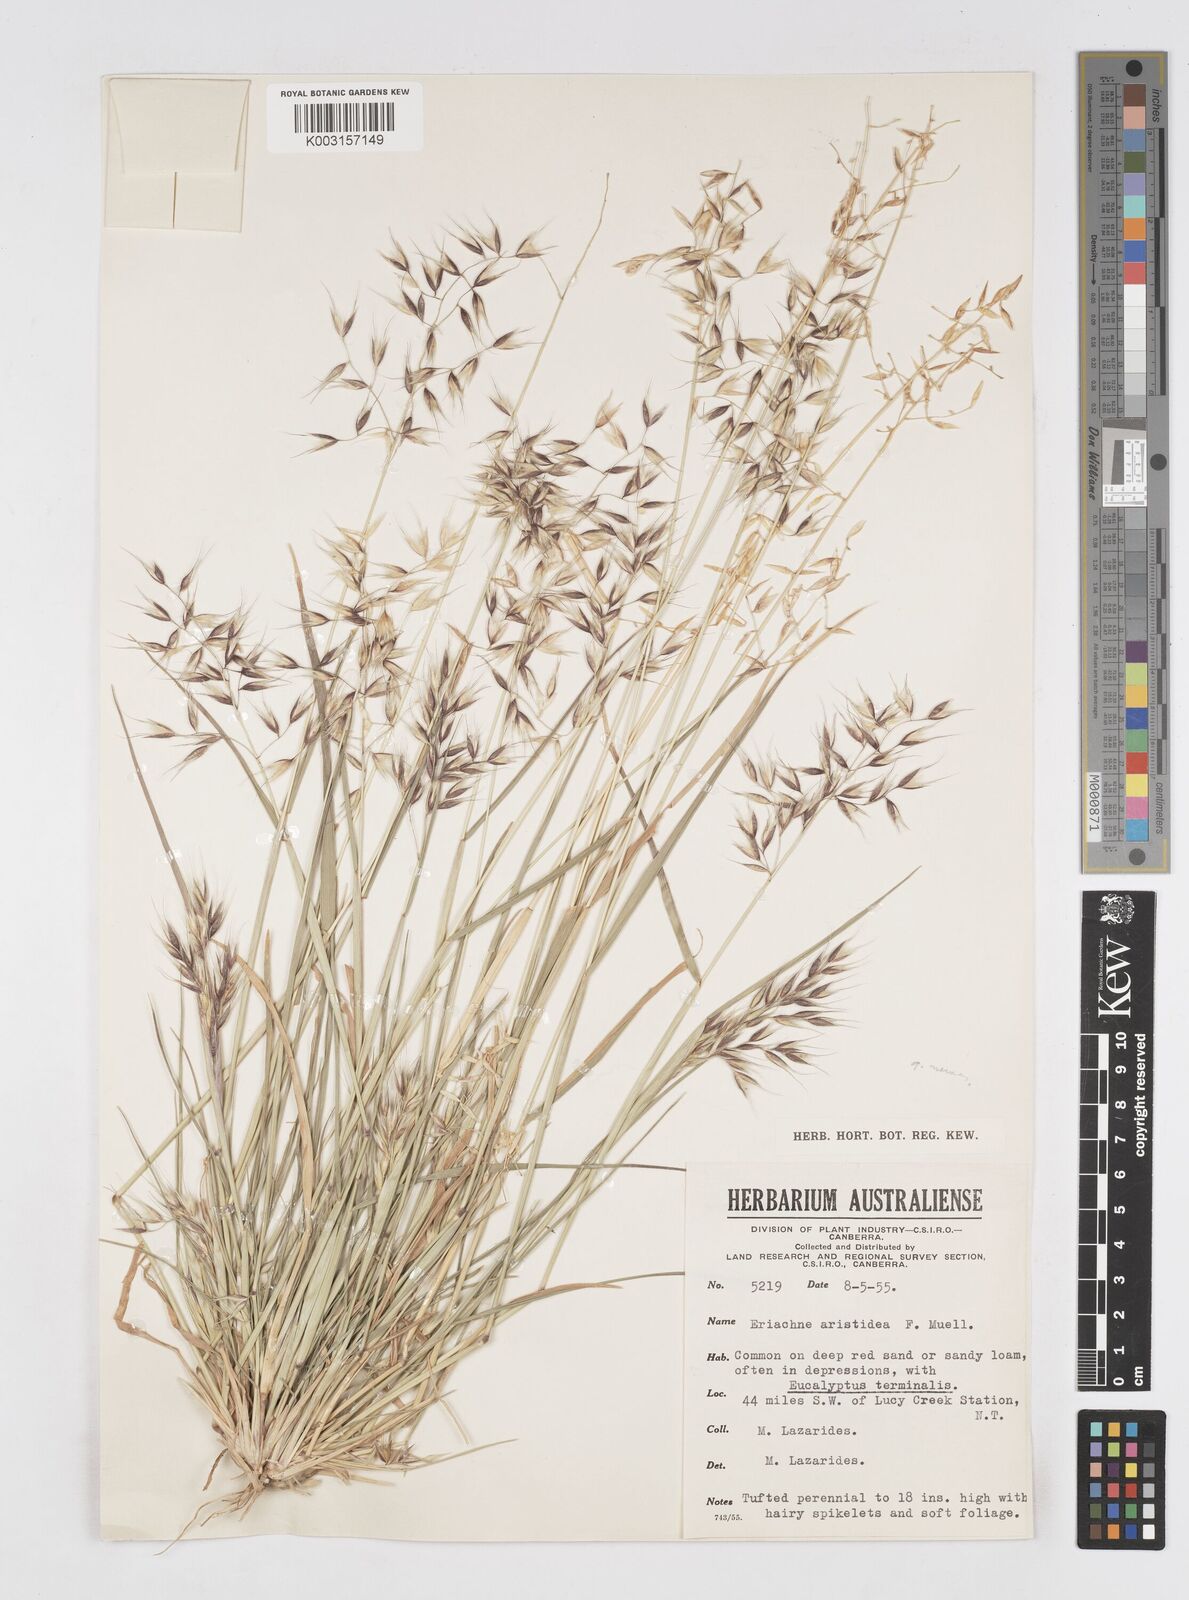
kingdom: Plantae
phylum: Tracheophyta
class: Liliopsida
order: Poales
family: Poaceae
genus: Eriachne
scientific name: Eriachne aristidea
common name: Three-awn wanderrie grass
